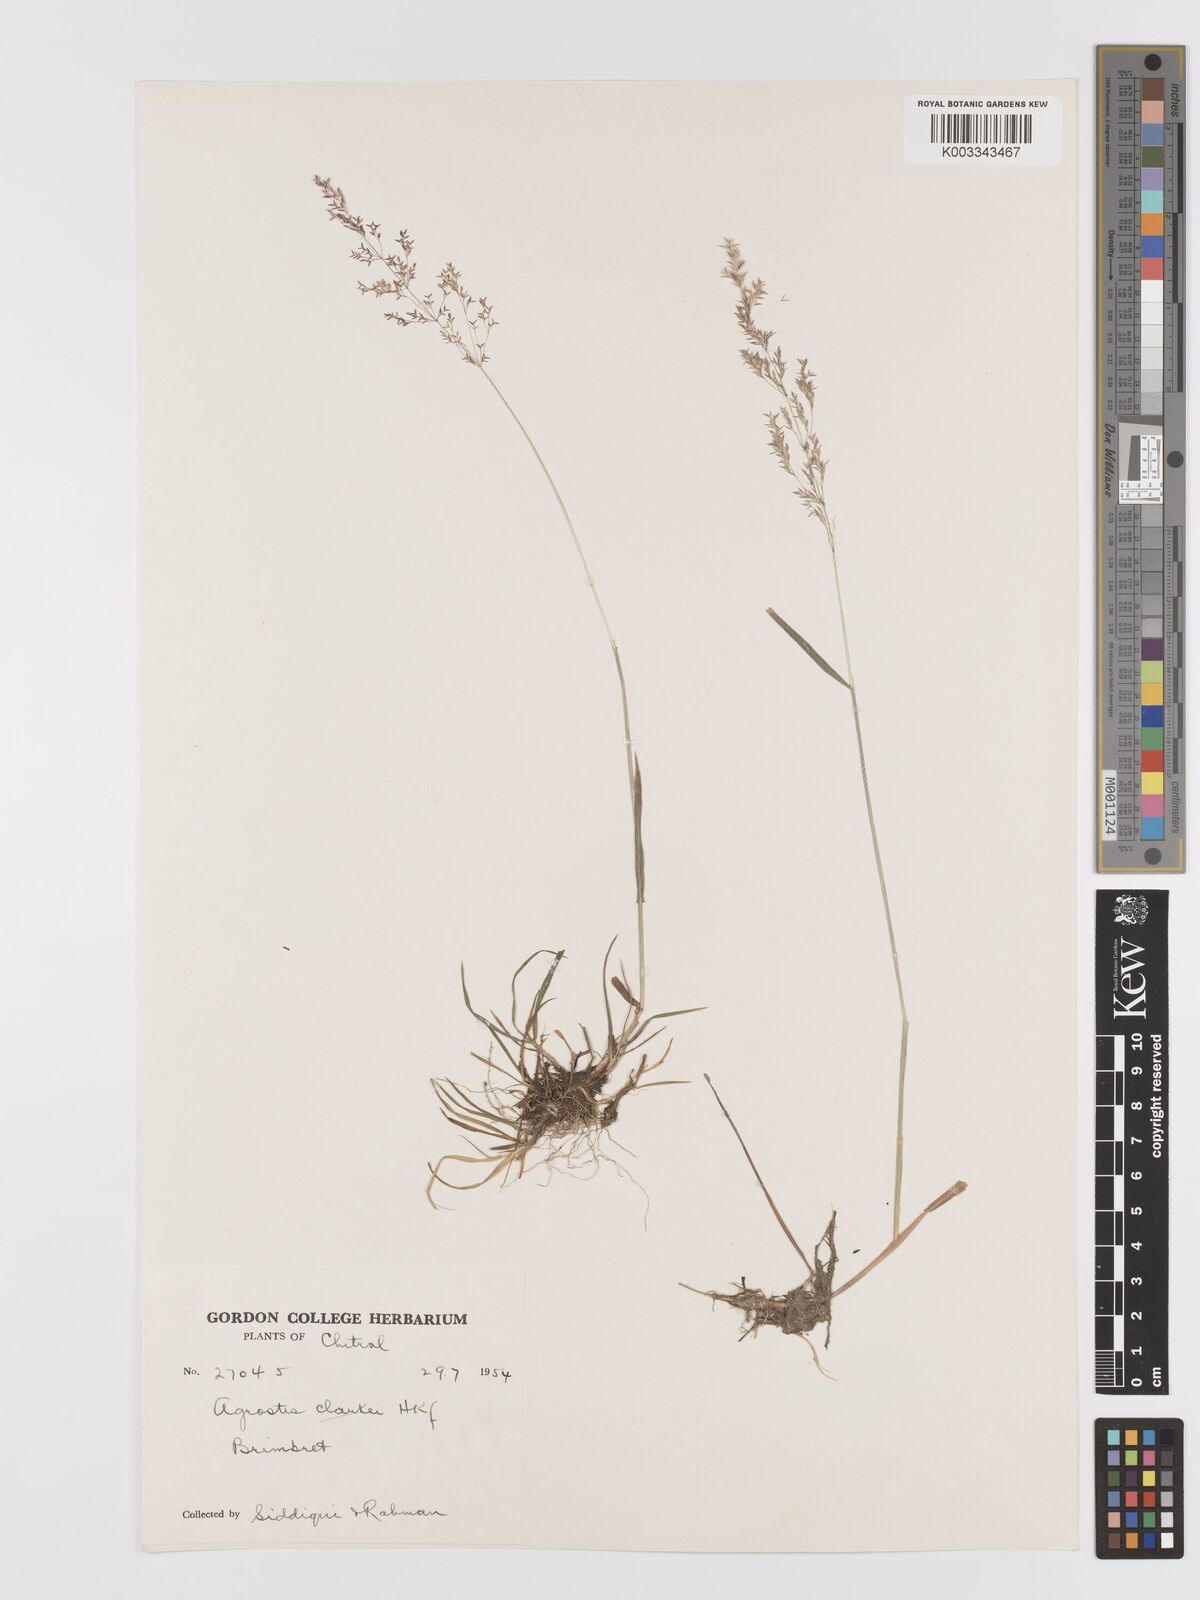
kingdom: Plantae
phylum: Tracheophyta
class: Liliopsida
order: Poales
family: Poaceae
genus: Agrostis
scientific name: Agrostis stolonifera
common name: Creeping bentgrass
